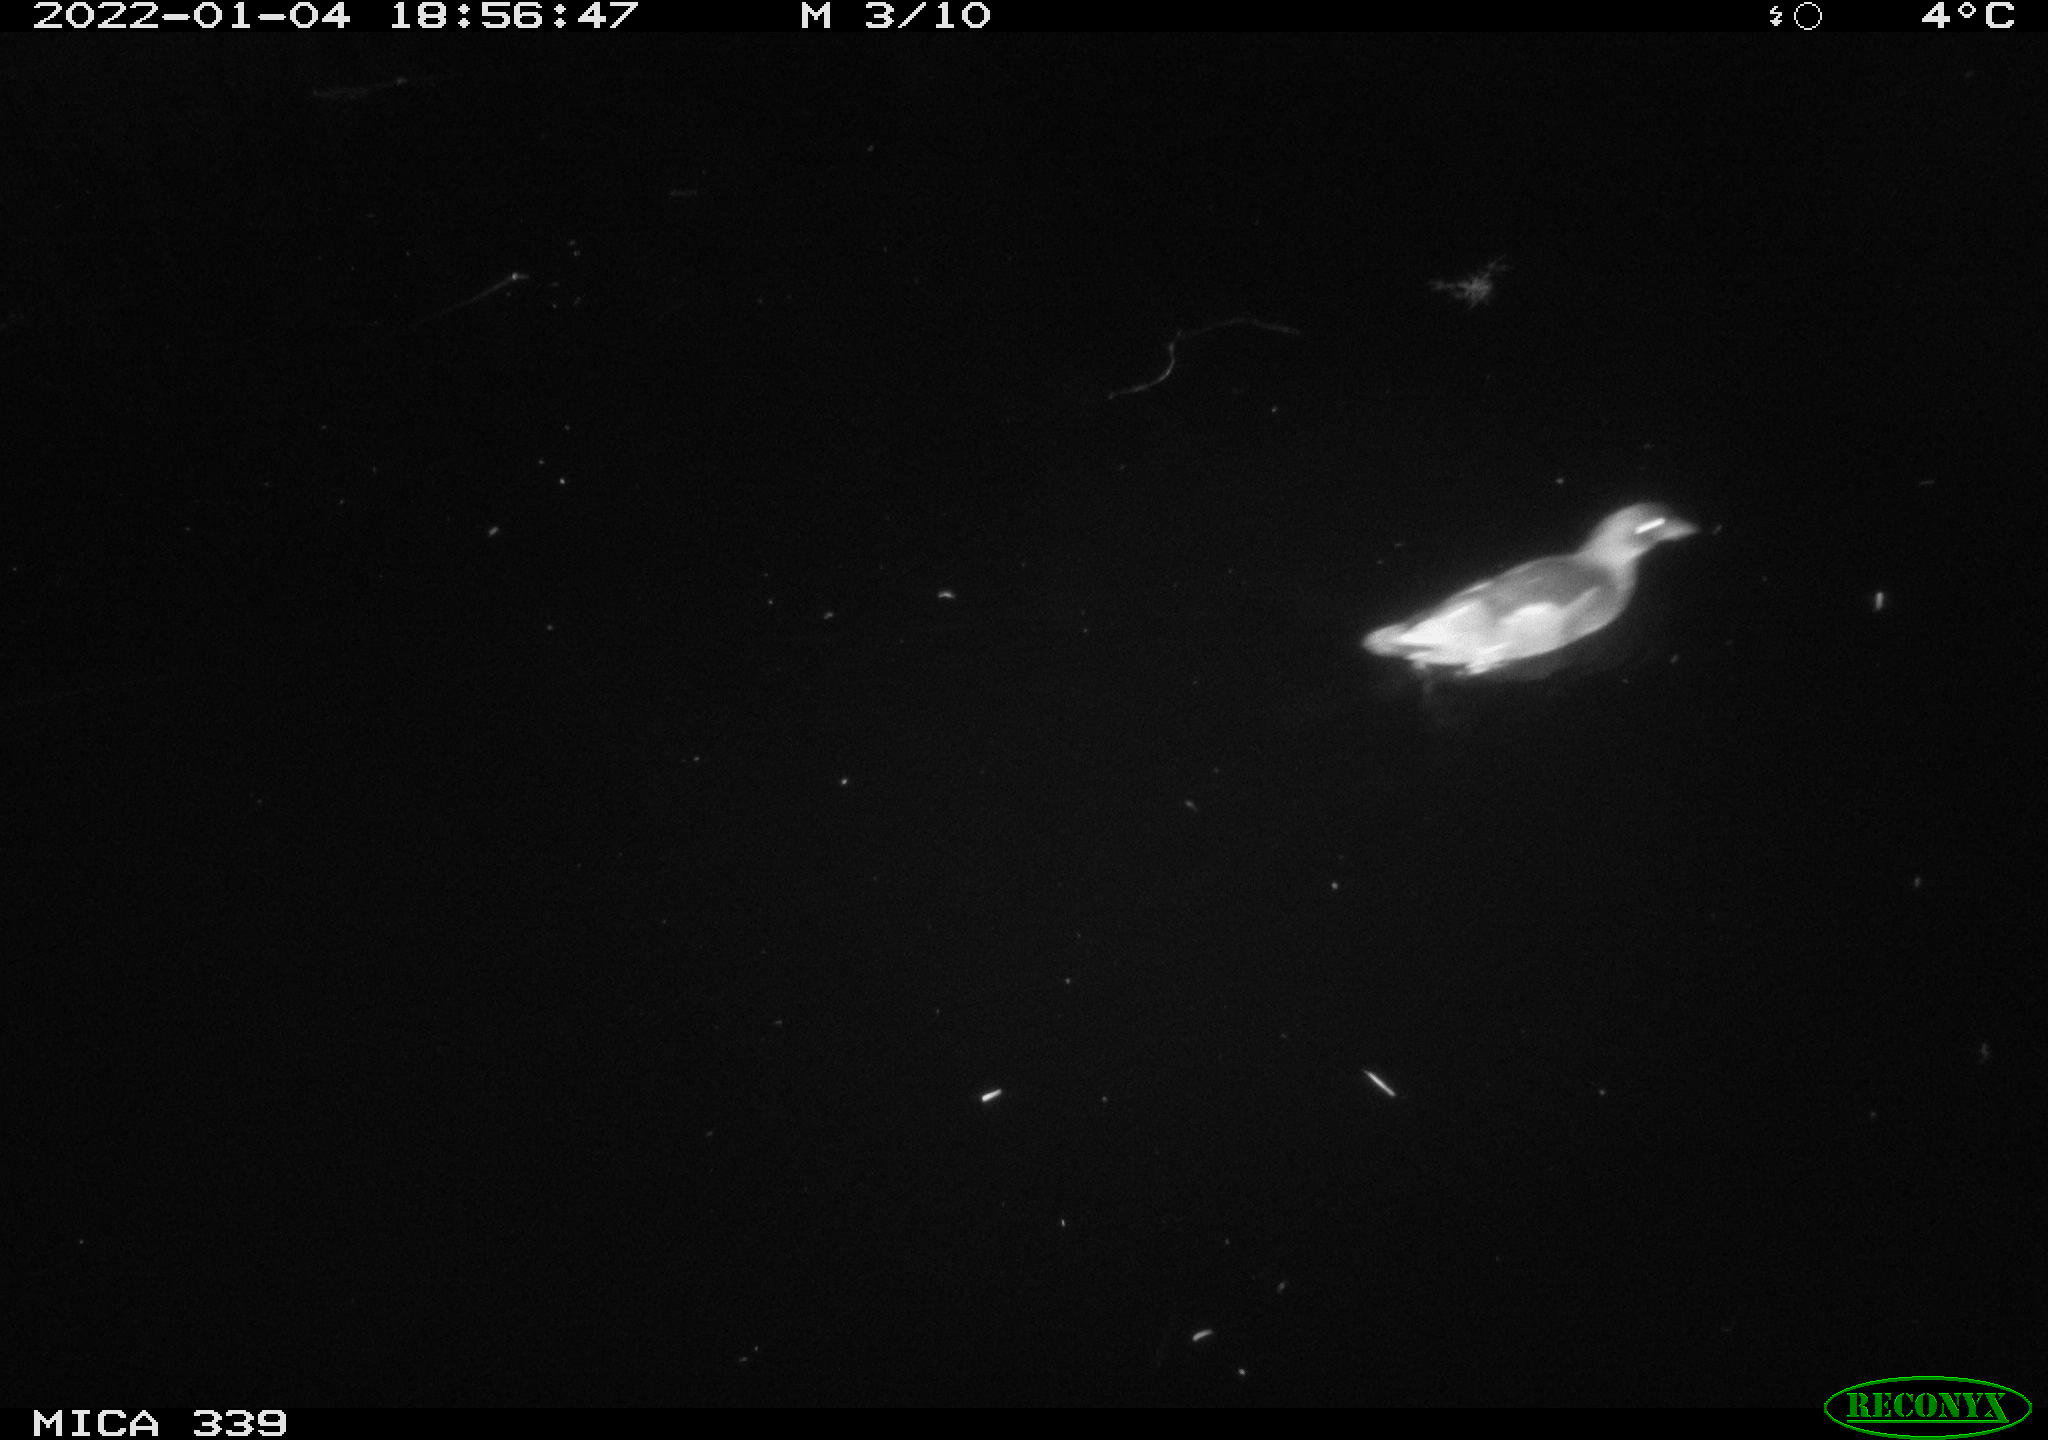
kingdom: Animalia
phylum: Chordata
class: Aves
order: Gruiformes
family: Rallidae
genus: Gallinula
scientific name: Gallinula chloropus
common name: Common moorhen
